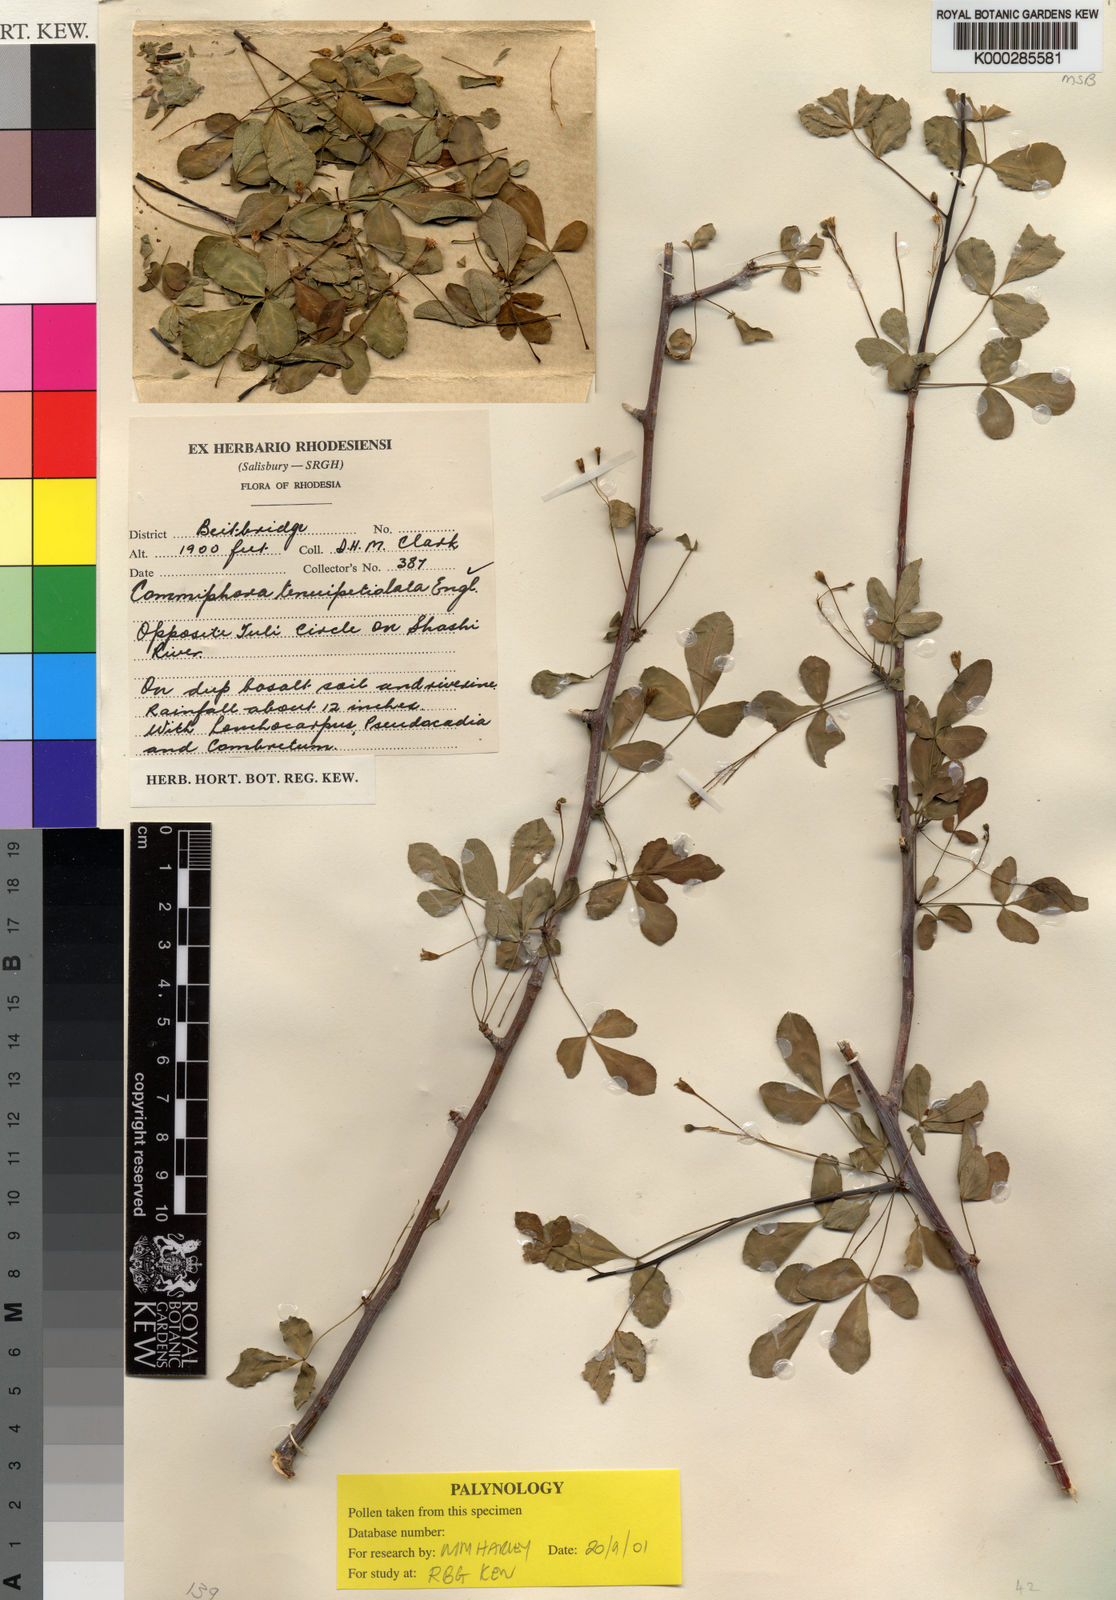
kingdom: Plantae
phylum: Tracheophyta
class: Magnoliopsida
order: Sapindales
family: Burseraceae
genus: Commiphora
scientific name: Commiphora tenuipetiolata
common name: Satin-bark corkwood
